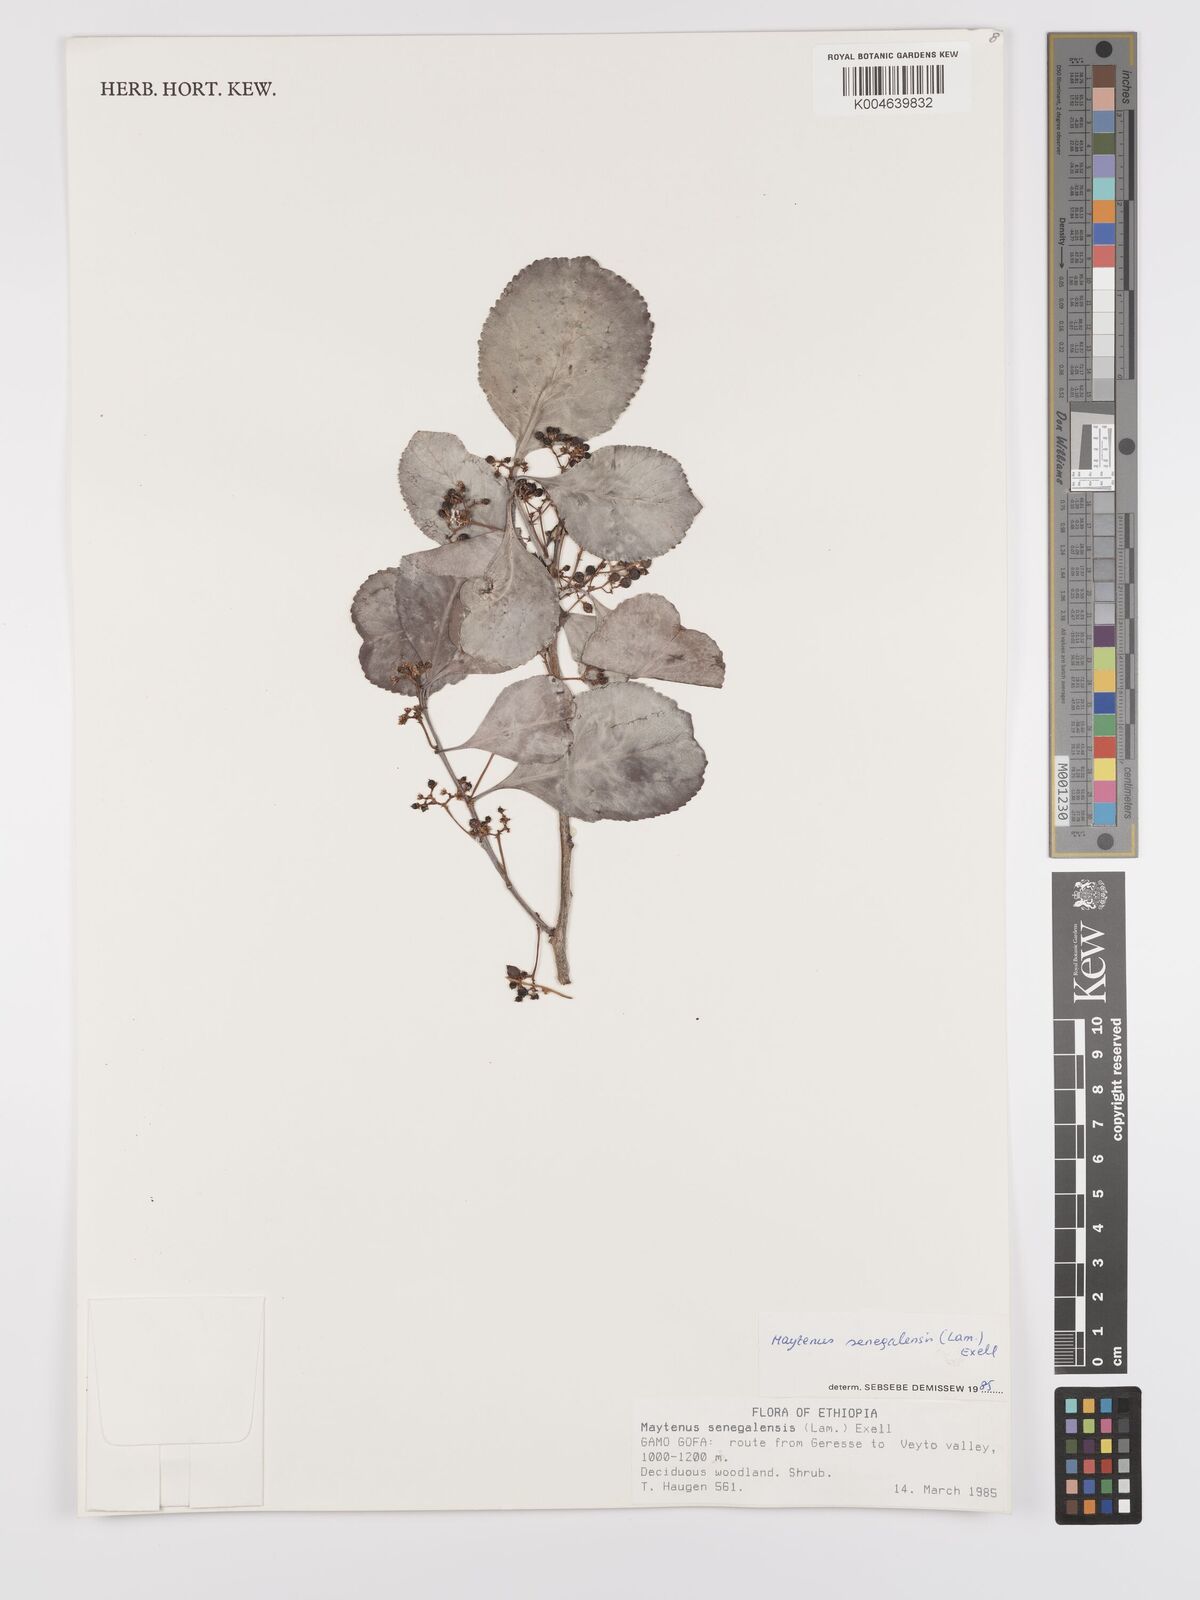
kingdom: Plantae
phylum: Tracheophyta
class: Magnoliopsida
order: Celastrales
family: Celastraceae
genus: Gymnosporia
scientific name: Gymnosporia senegalensis
